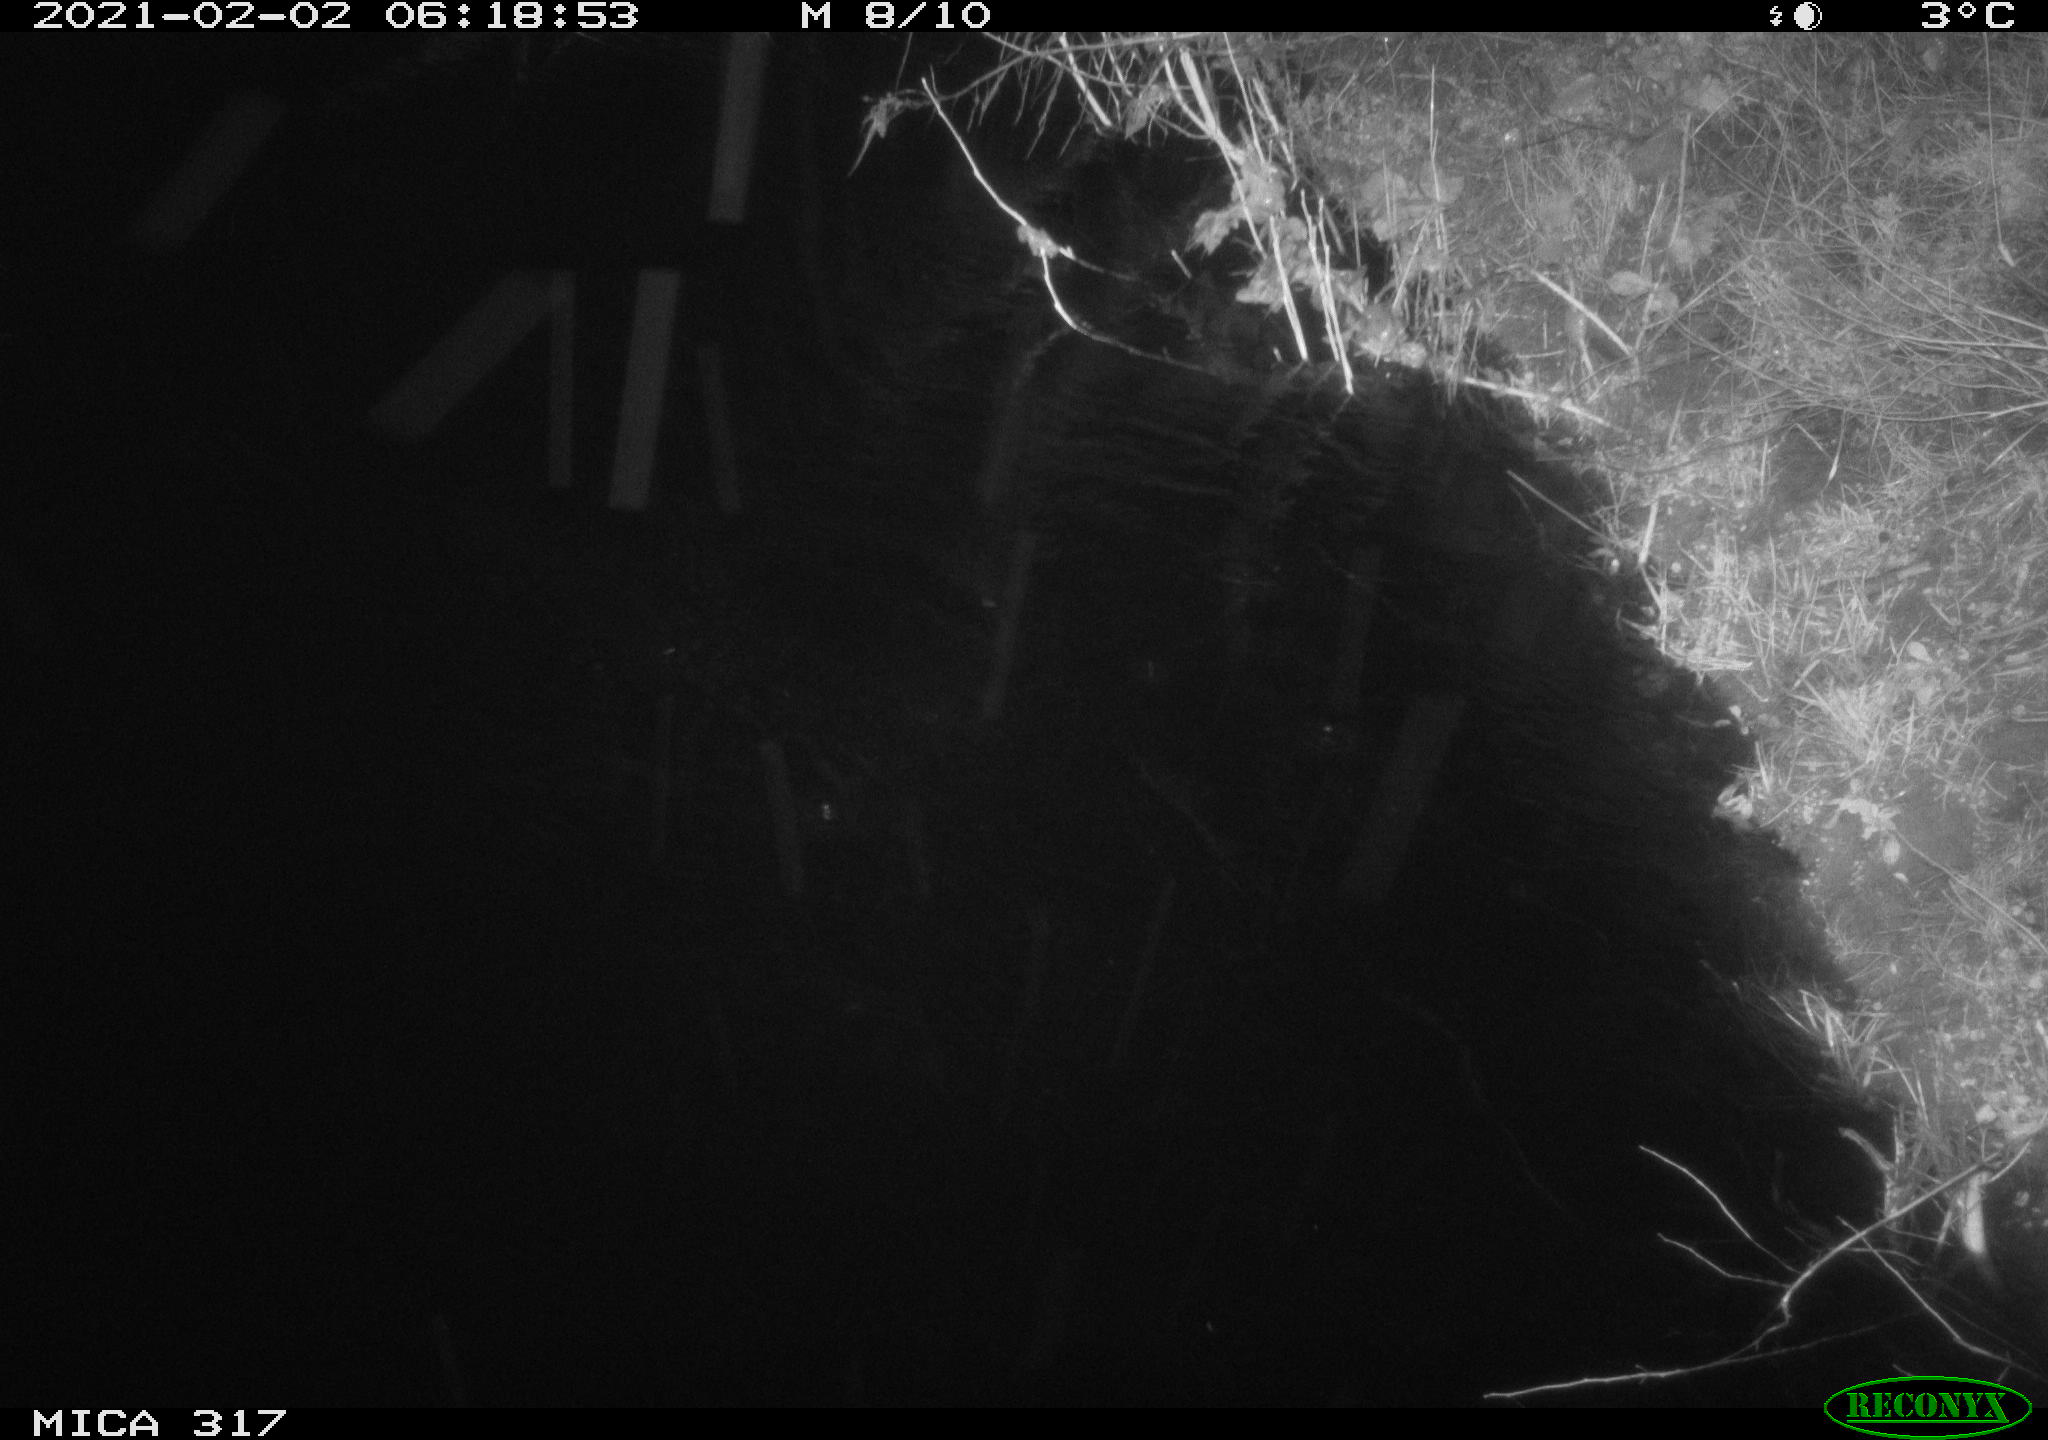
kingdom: Animalia
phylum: Chordata
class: Mammalia
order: Rodentia
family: Muridae
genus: Rattus
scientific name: Rattus norvegicus
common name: Brown rat
